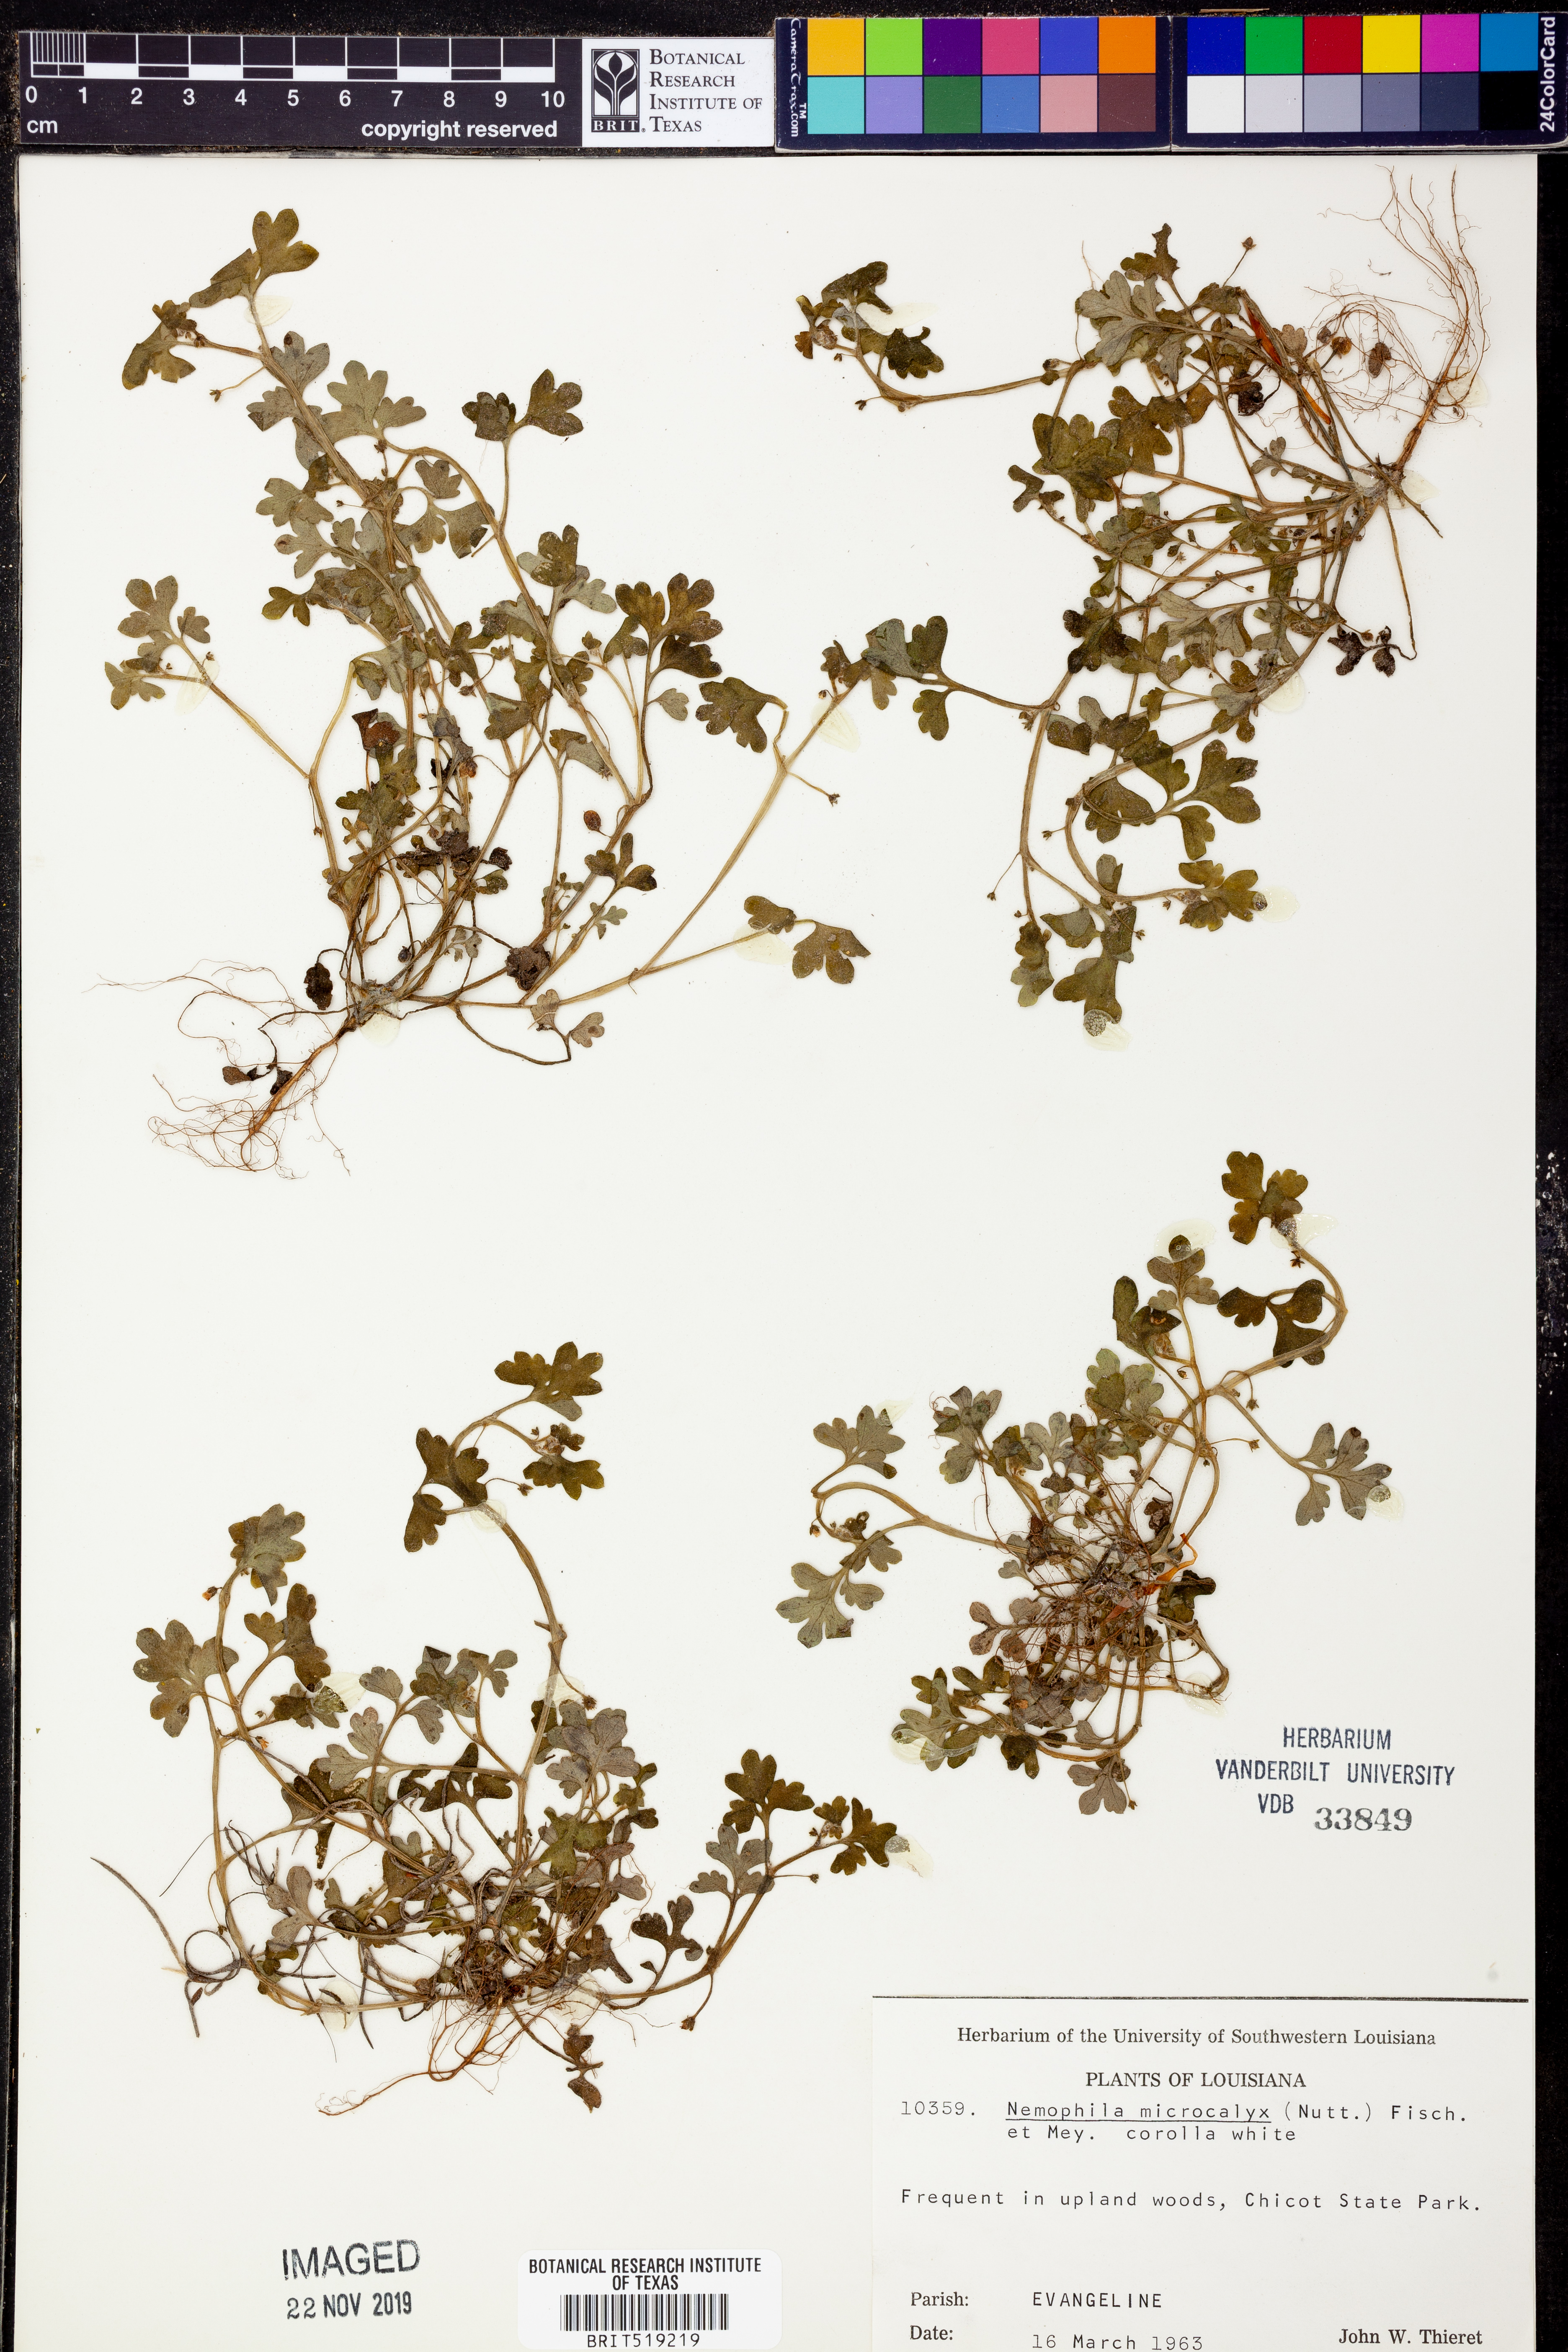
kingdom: Plantae
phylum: Tracheophyta
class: Magnoliopsida
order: Boraginales
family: Hydrophyllaceae
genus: Nemophila
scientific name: Nemophila aphylla
